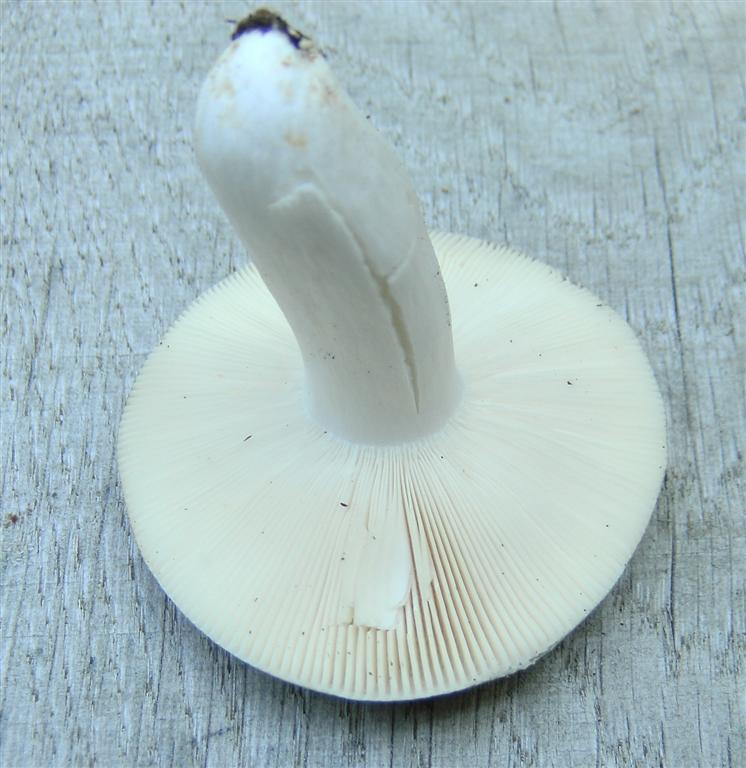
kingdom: Fungi
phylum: Basidiomycota
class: Agaricomycetes
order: Russulales
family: Russulaceae
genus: Russula
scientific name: Russula
